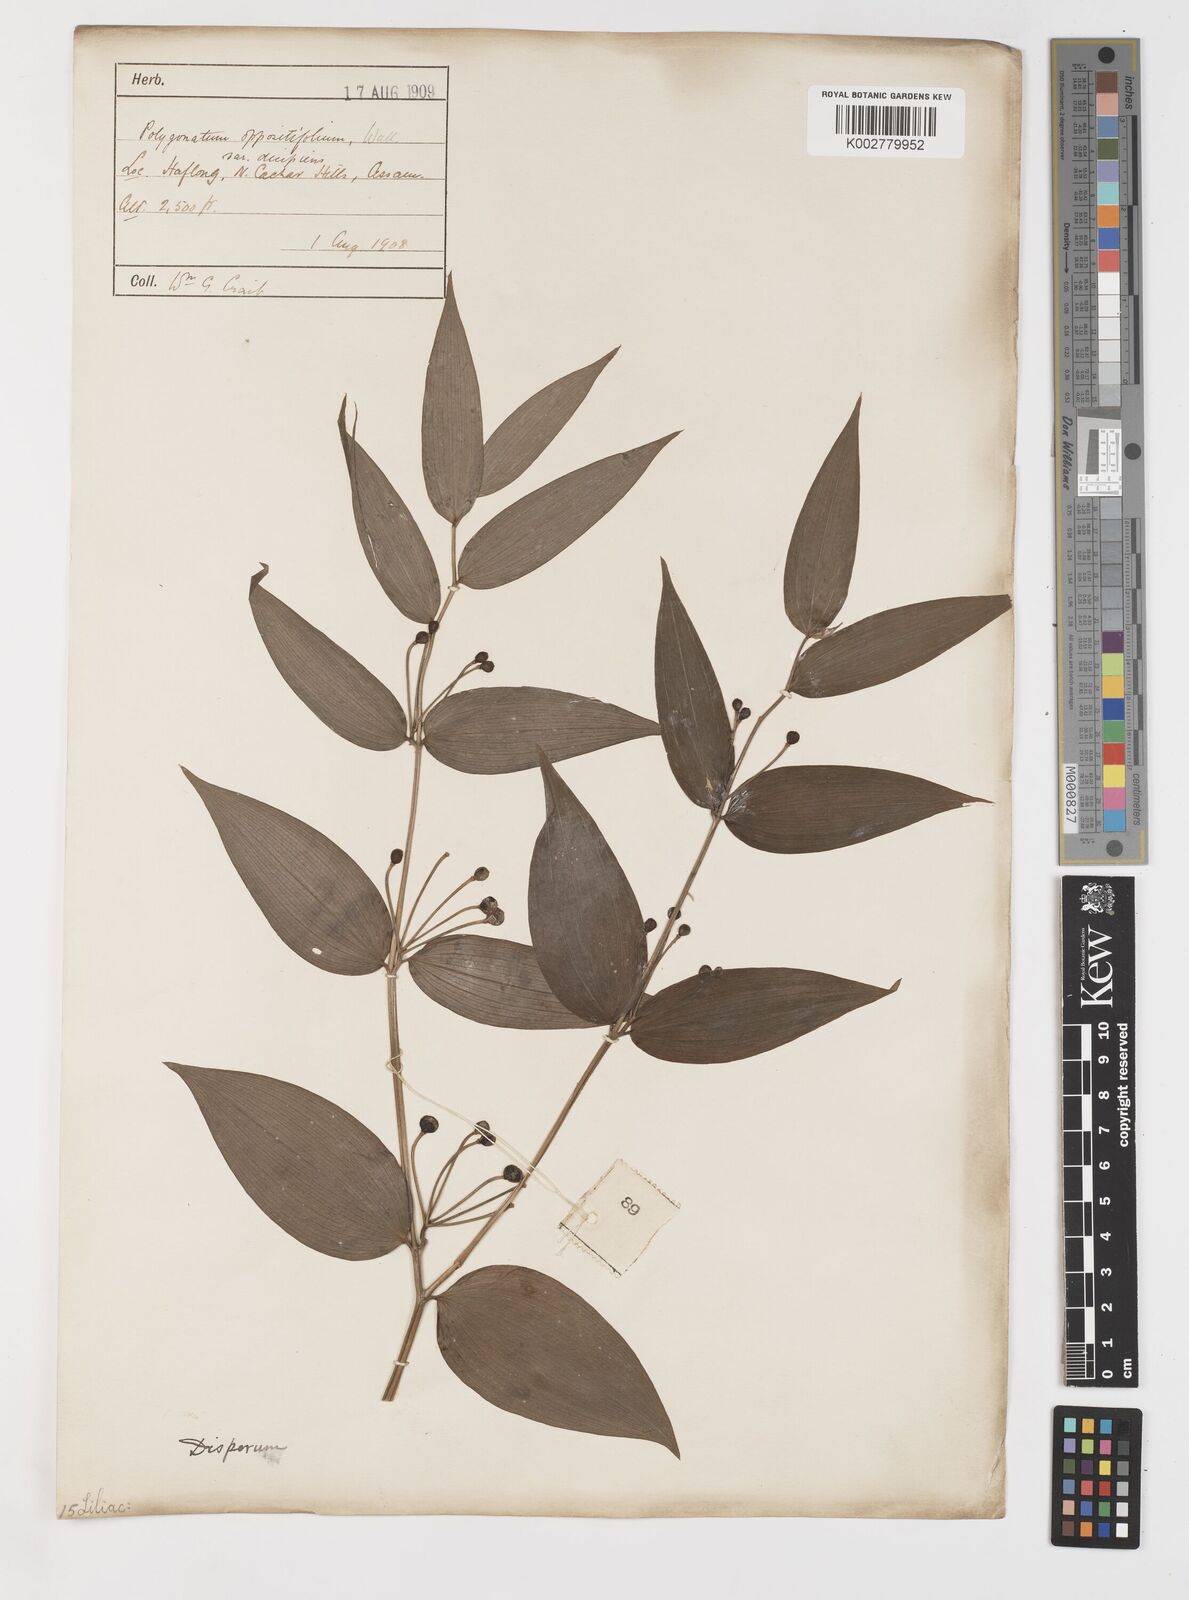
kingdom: Plantae
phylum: Tracheophyta
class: Liliopsida
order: Liliales
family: Colchicaceae
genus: Disporum
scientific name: Disporum cantoniense
